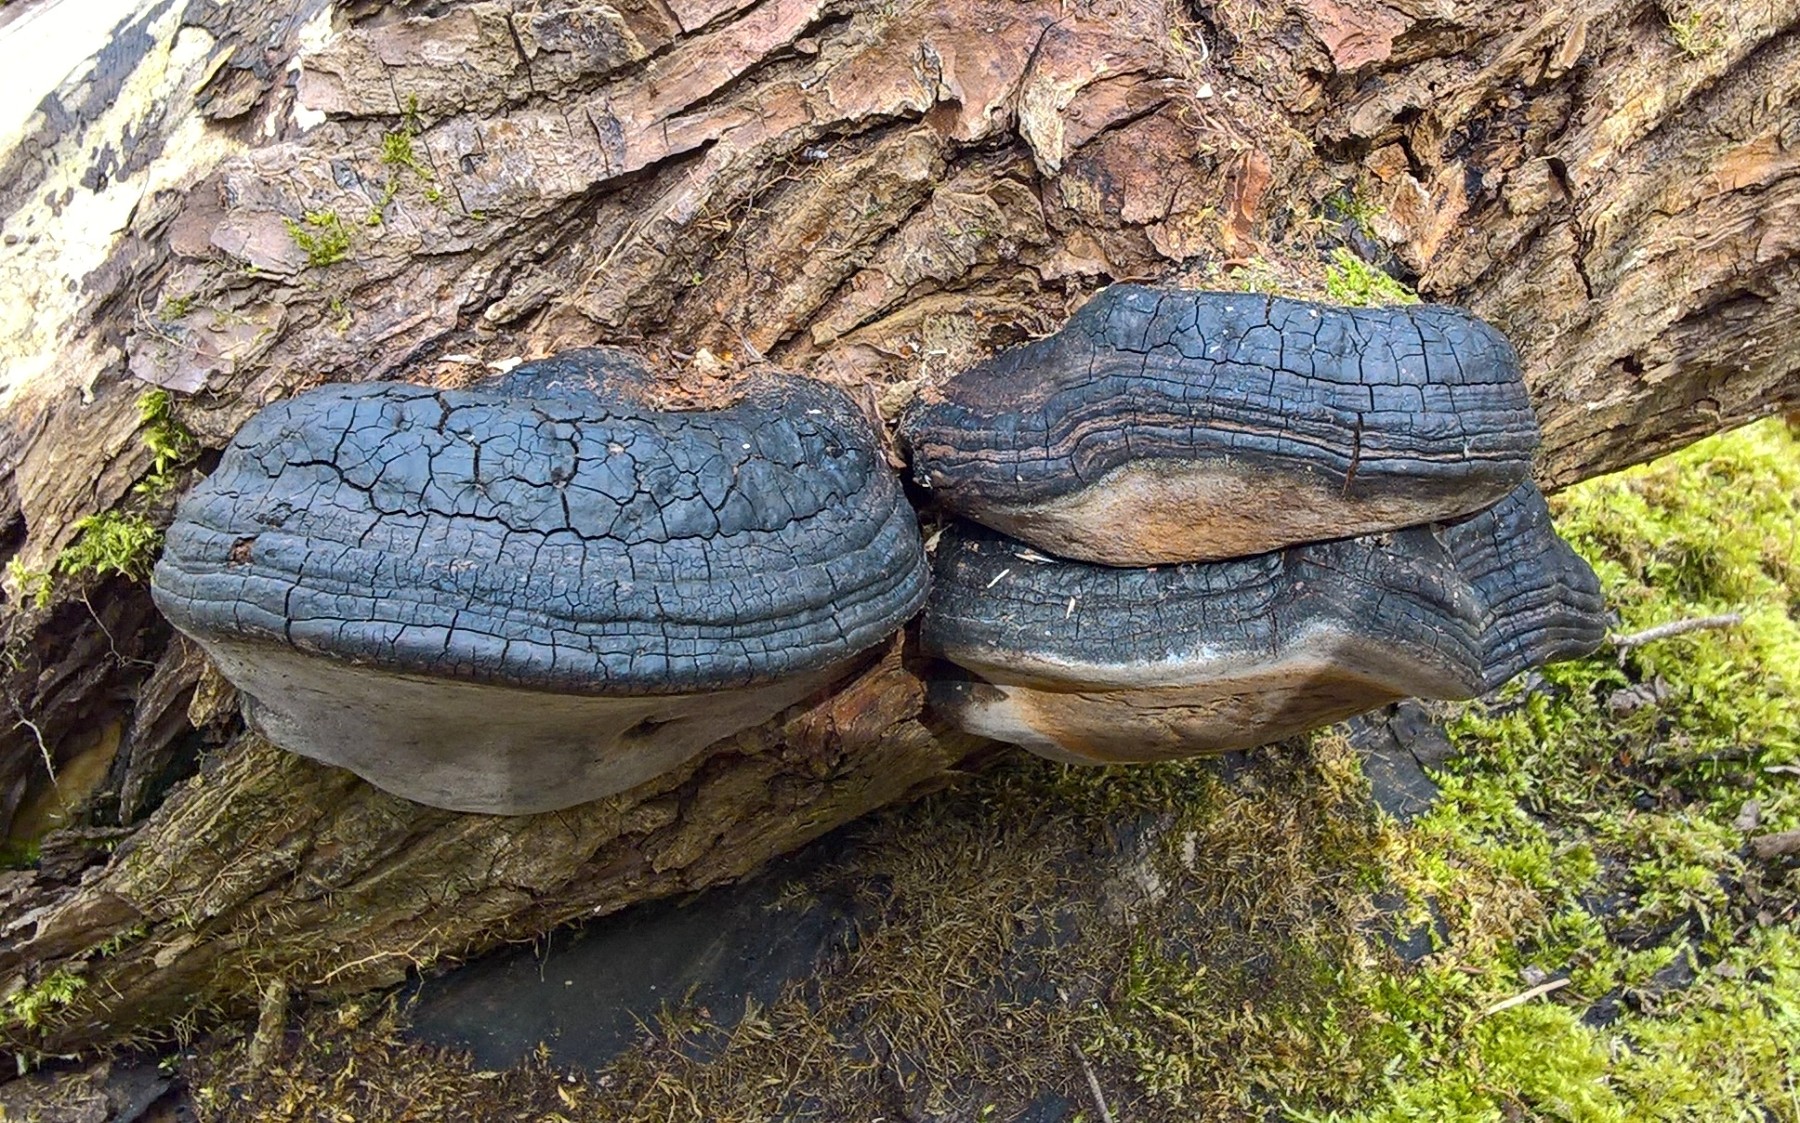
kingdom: Fungi
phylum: Basidiomycota
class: Agaricomycetes
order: Hymenochaetales
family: Hymenochaetaceae
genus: Phellinus
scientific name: Phellinus igniarius
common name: almindelig ildporesvamp
